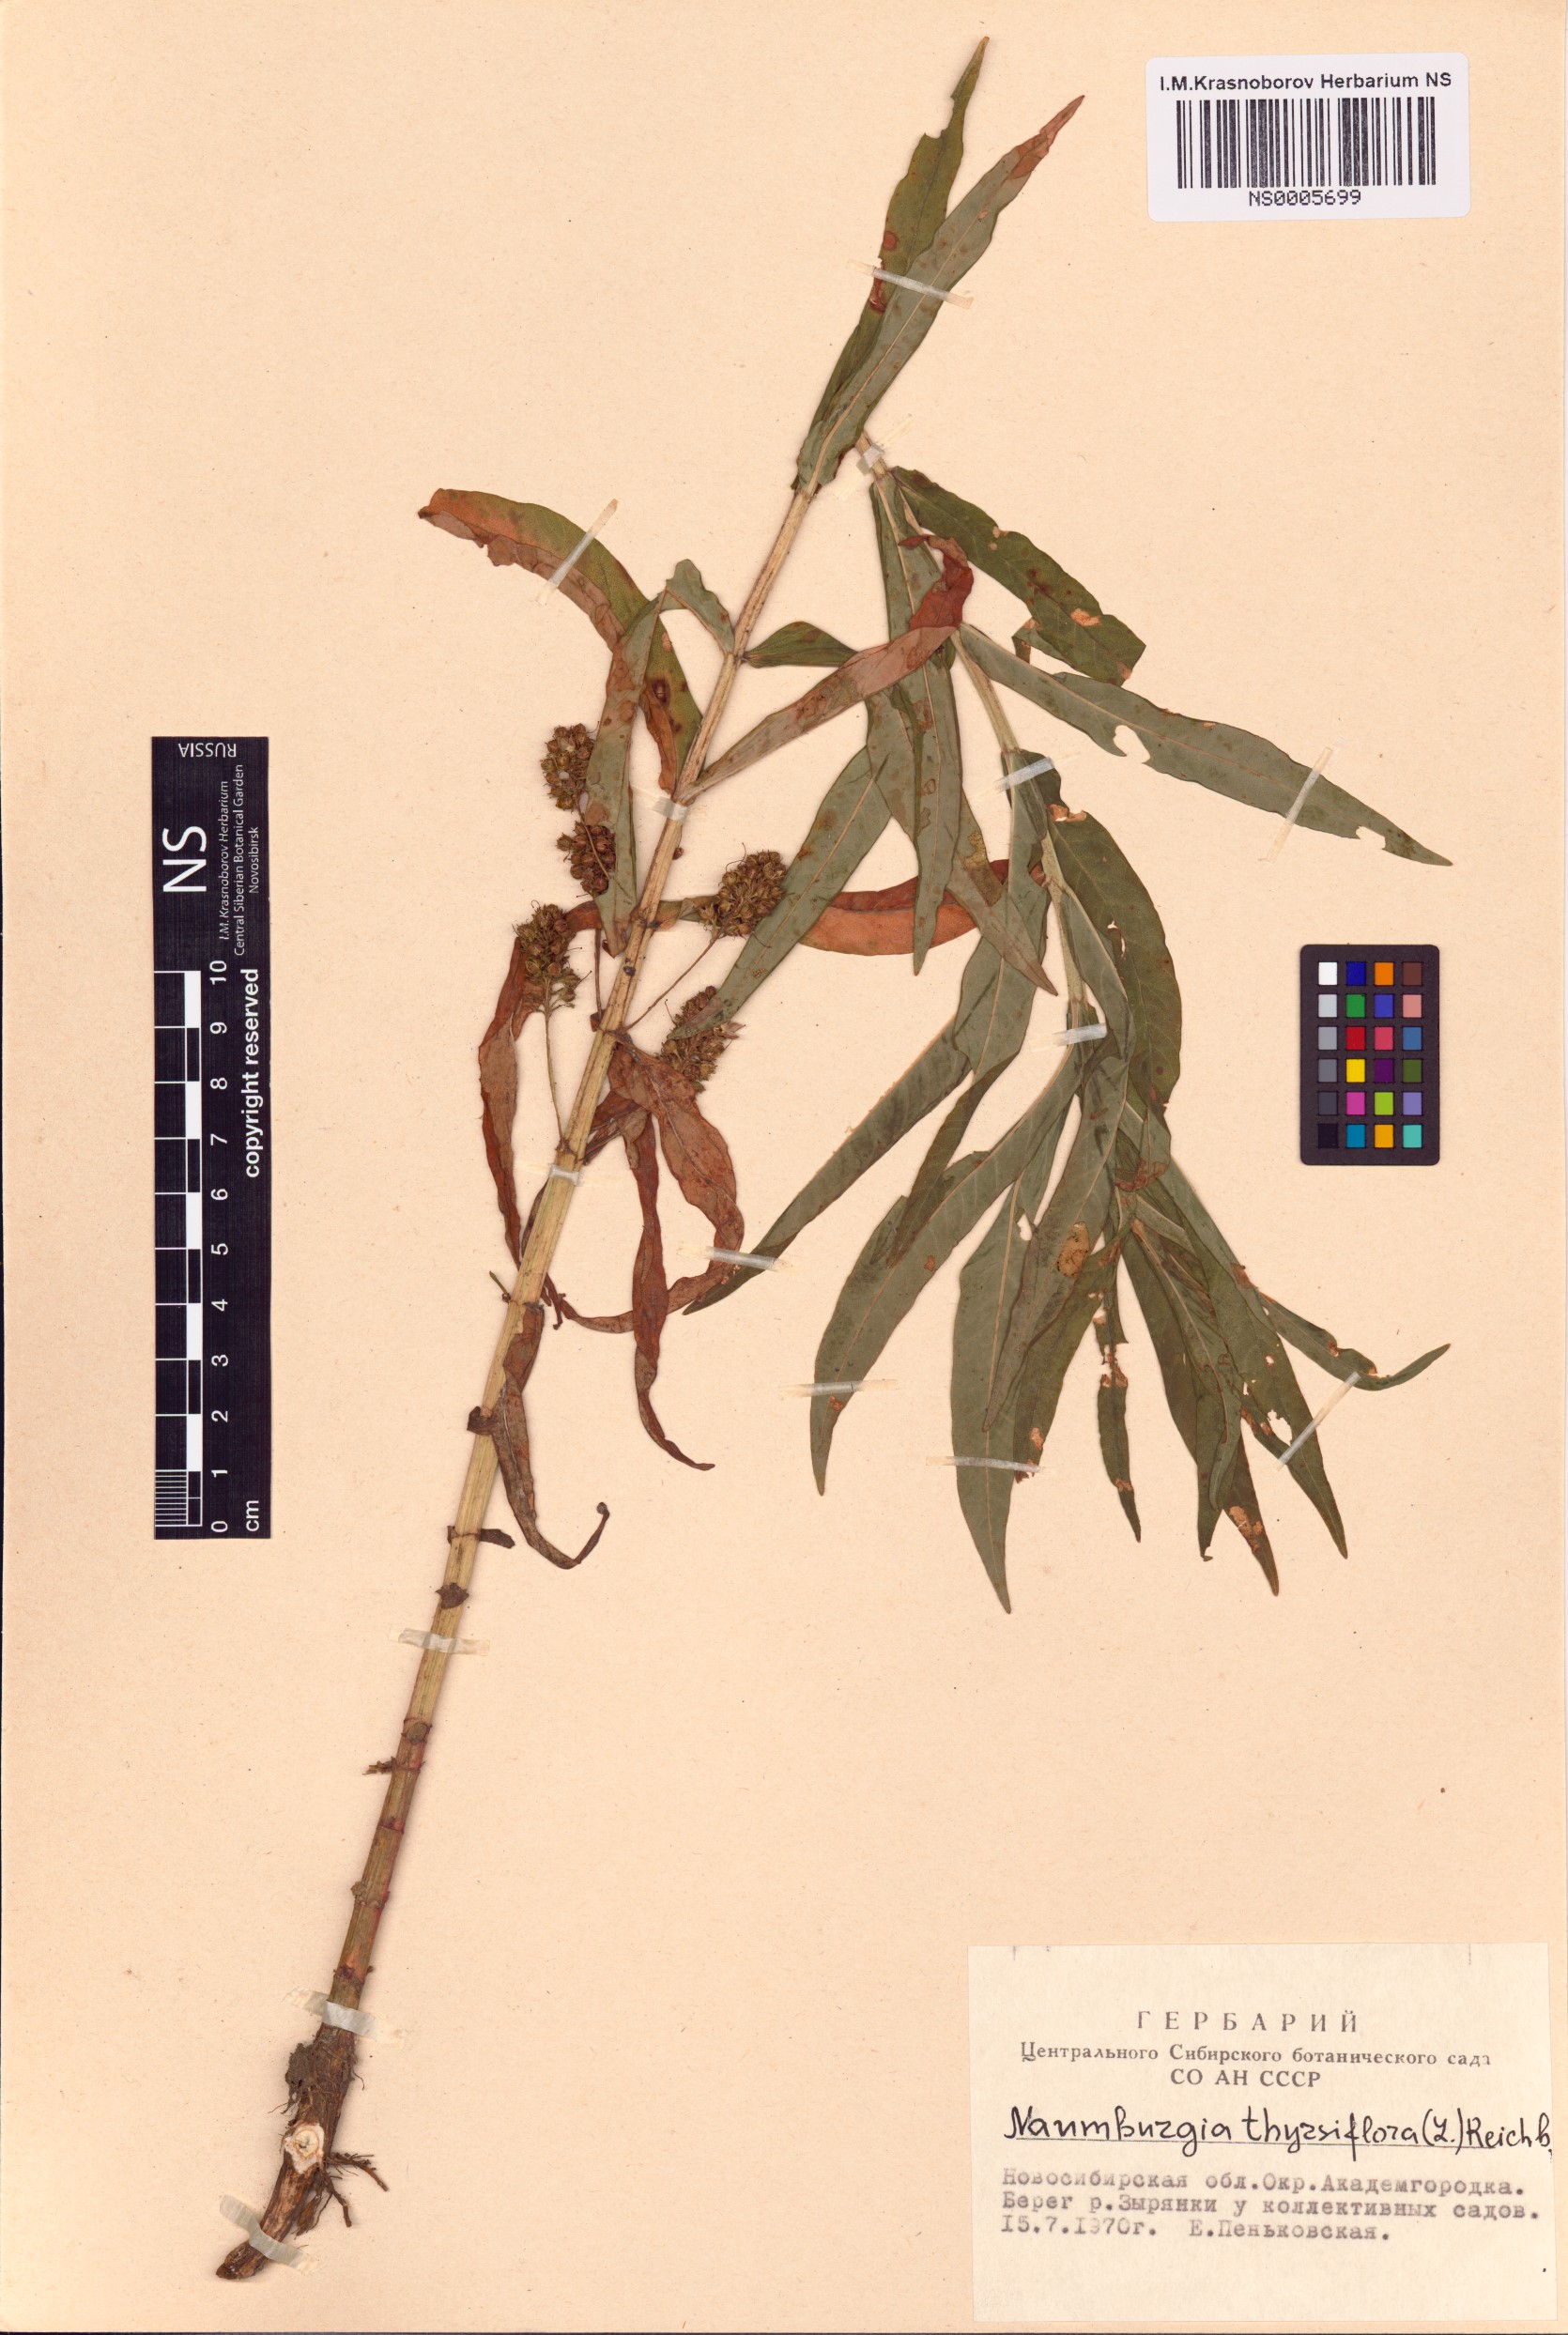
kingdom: Plantae
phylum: Tracheophyta
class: Magnoliopsida
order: Ericales
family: Primulaceae
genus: Lysimachia
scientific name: Lysimachia thyrsiflora
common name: Tufted loosestrife
